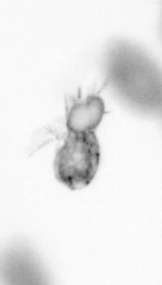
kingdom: Animalia
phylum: Arthropoda
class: Copepoda
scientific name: Copepoda
